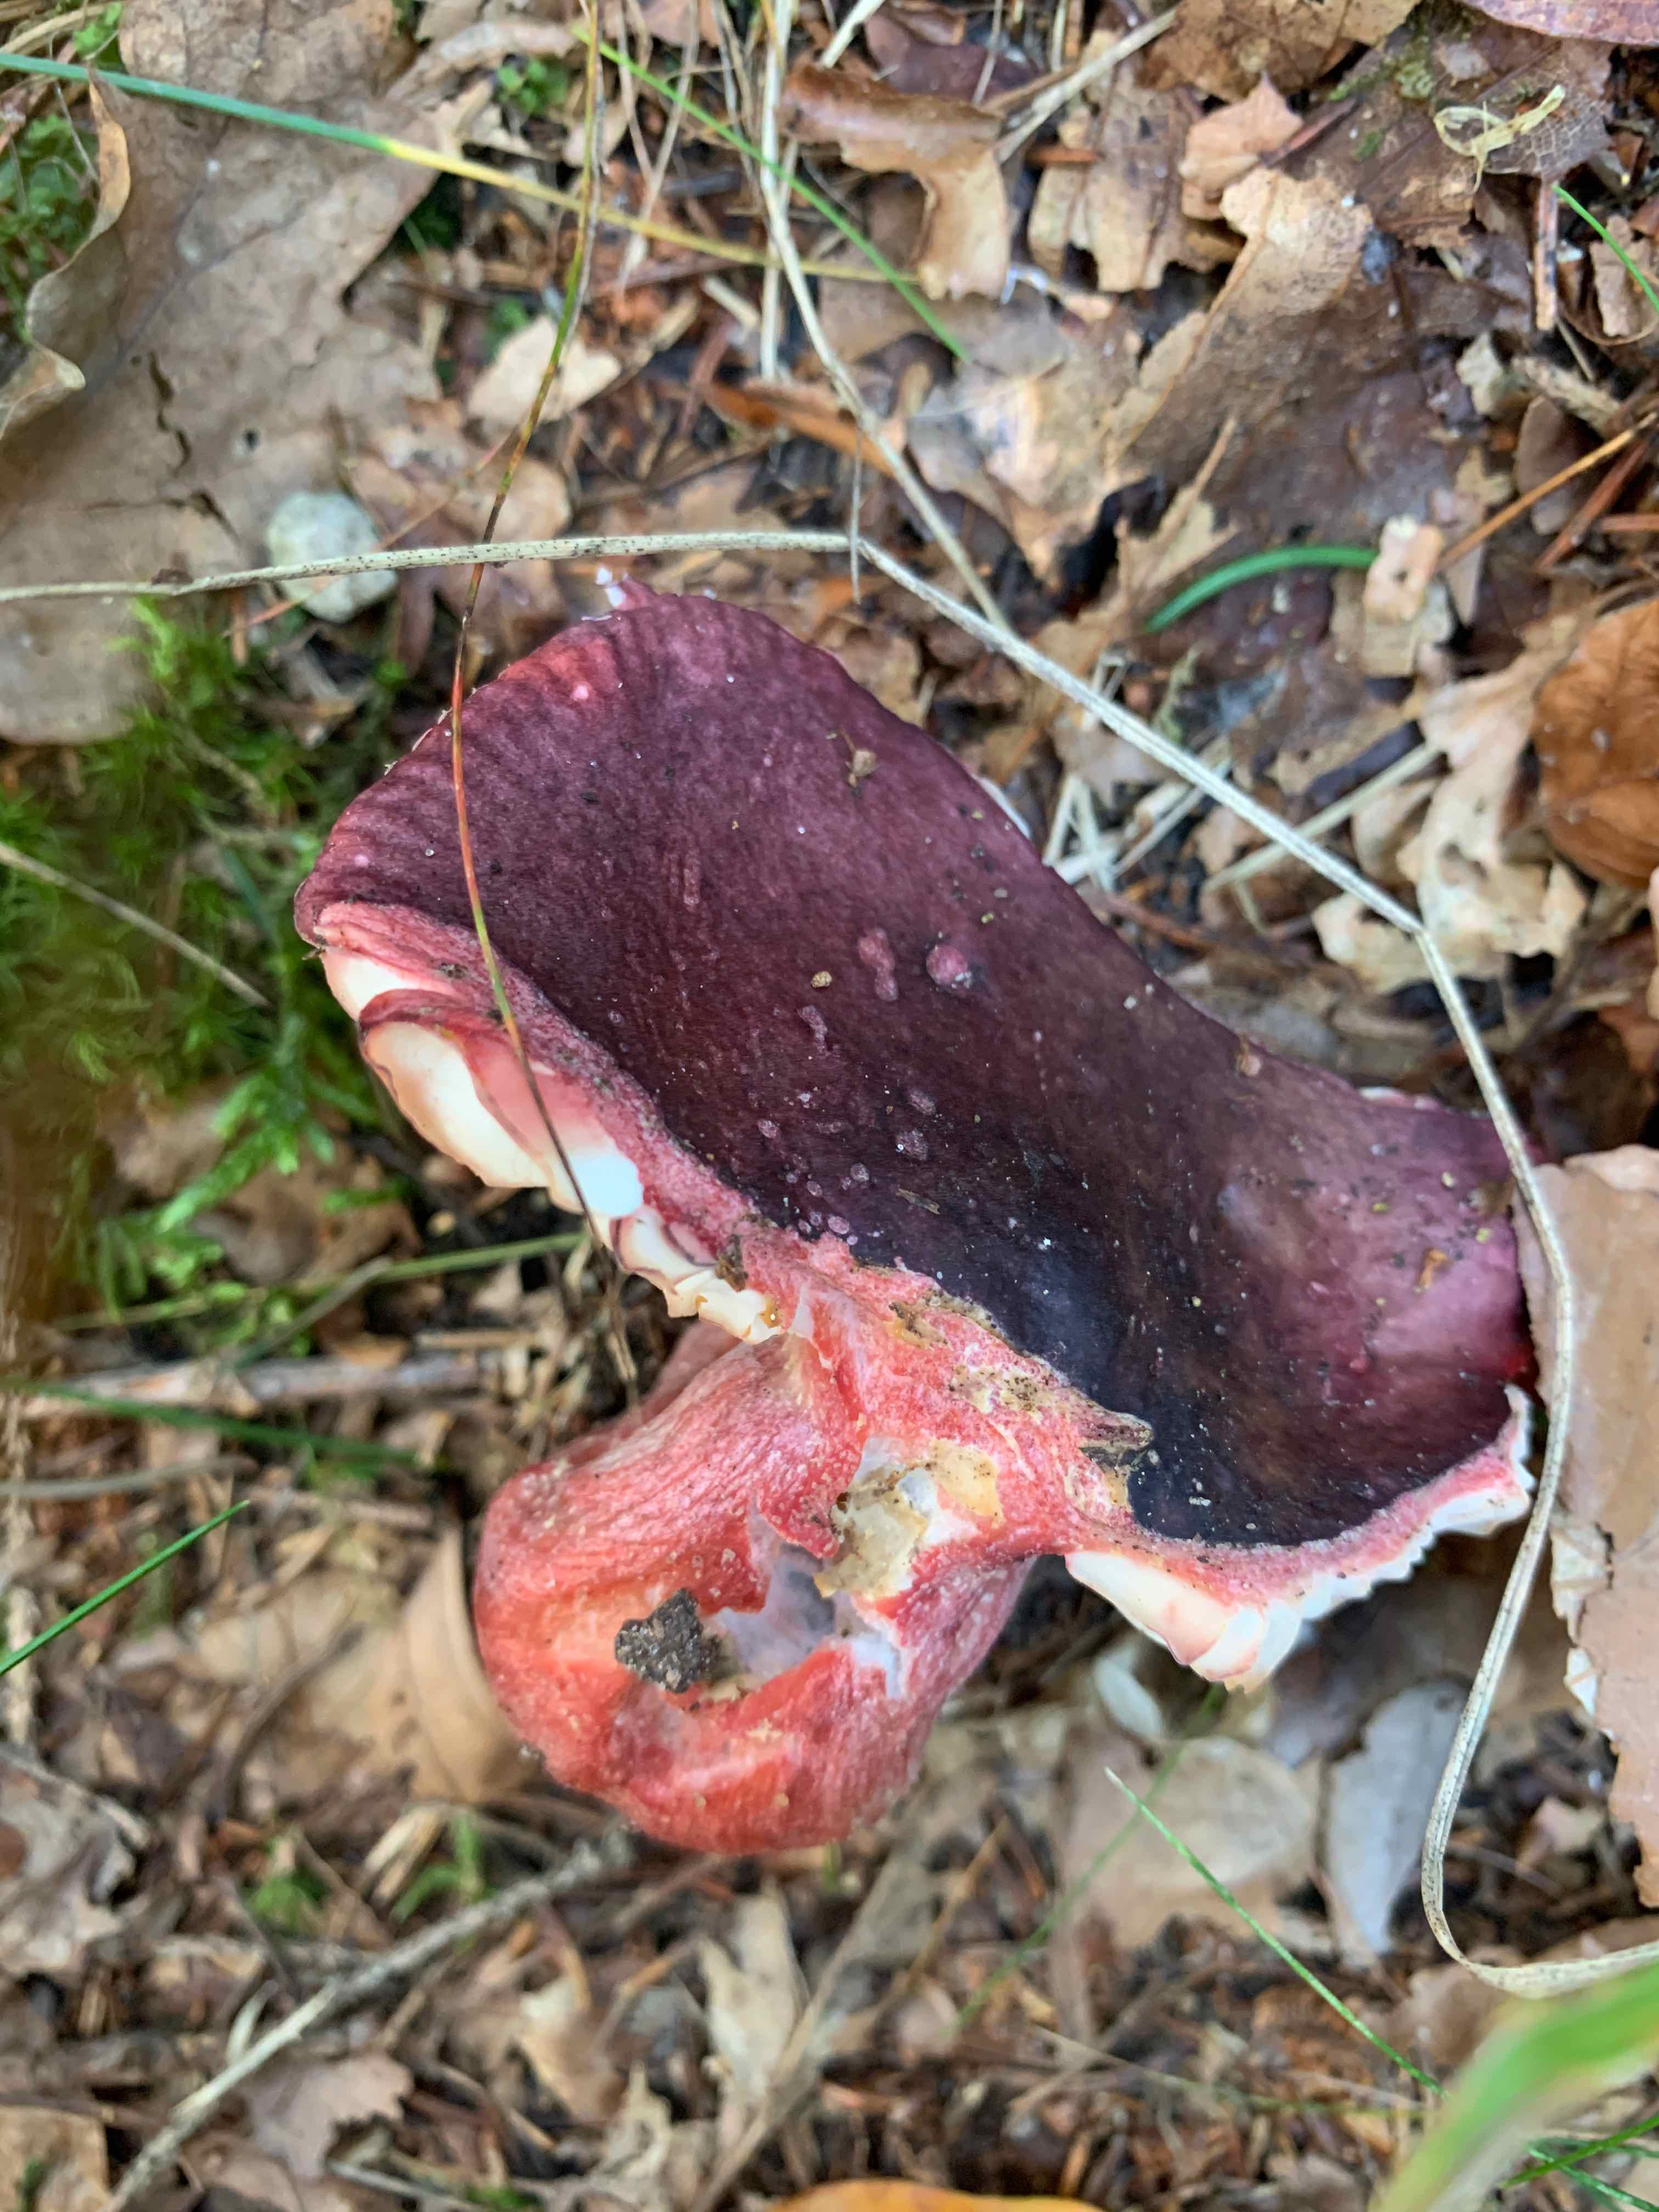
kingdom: Fungi
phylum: Basidiomycota
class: Agaricomycetes
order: Russulales
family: Russulaceae
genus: Russula
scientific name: Russula
